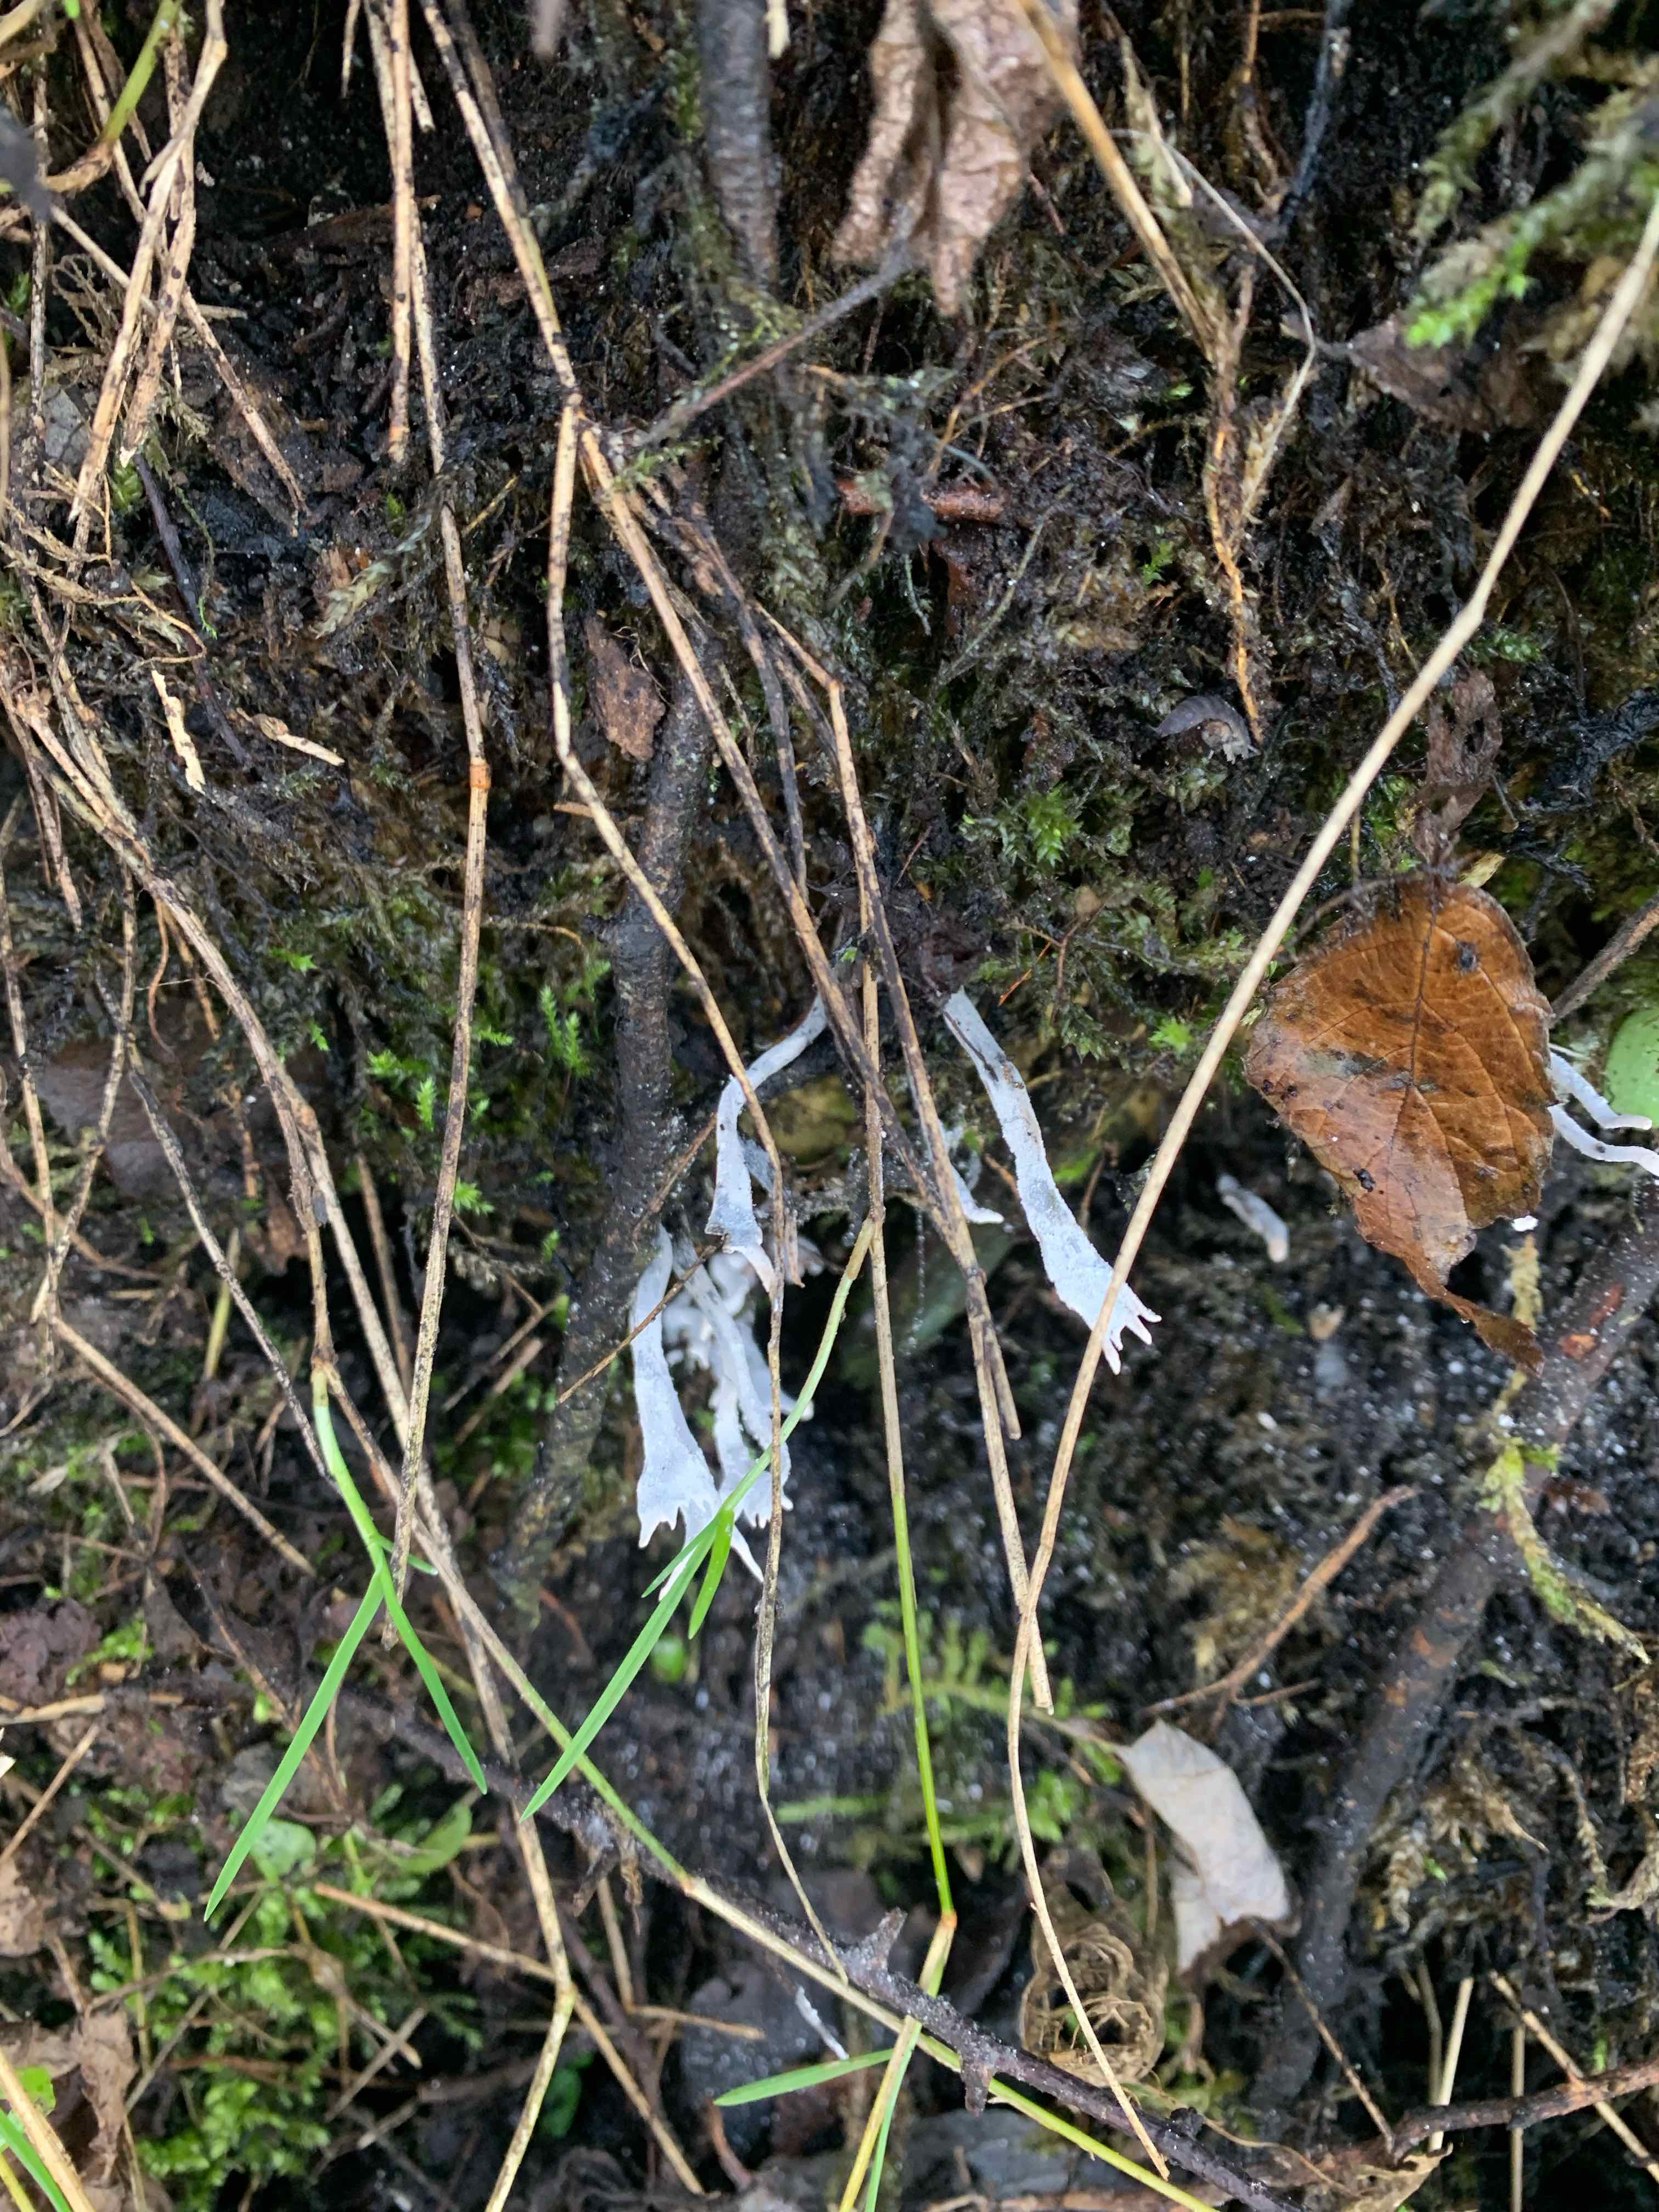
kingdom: Fungi
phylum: Ascomycota
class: Sordariomycetes
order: Xylariales
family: Xylariaceae
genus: Xylaria
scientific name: Xylaria hypoxylon
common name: grenet stødsvamp
